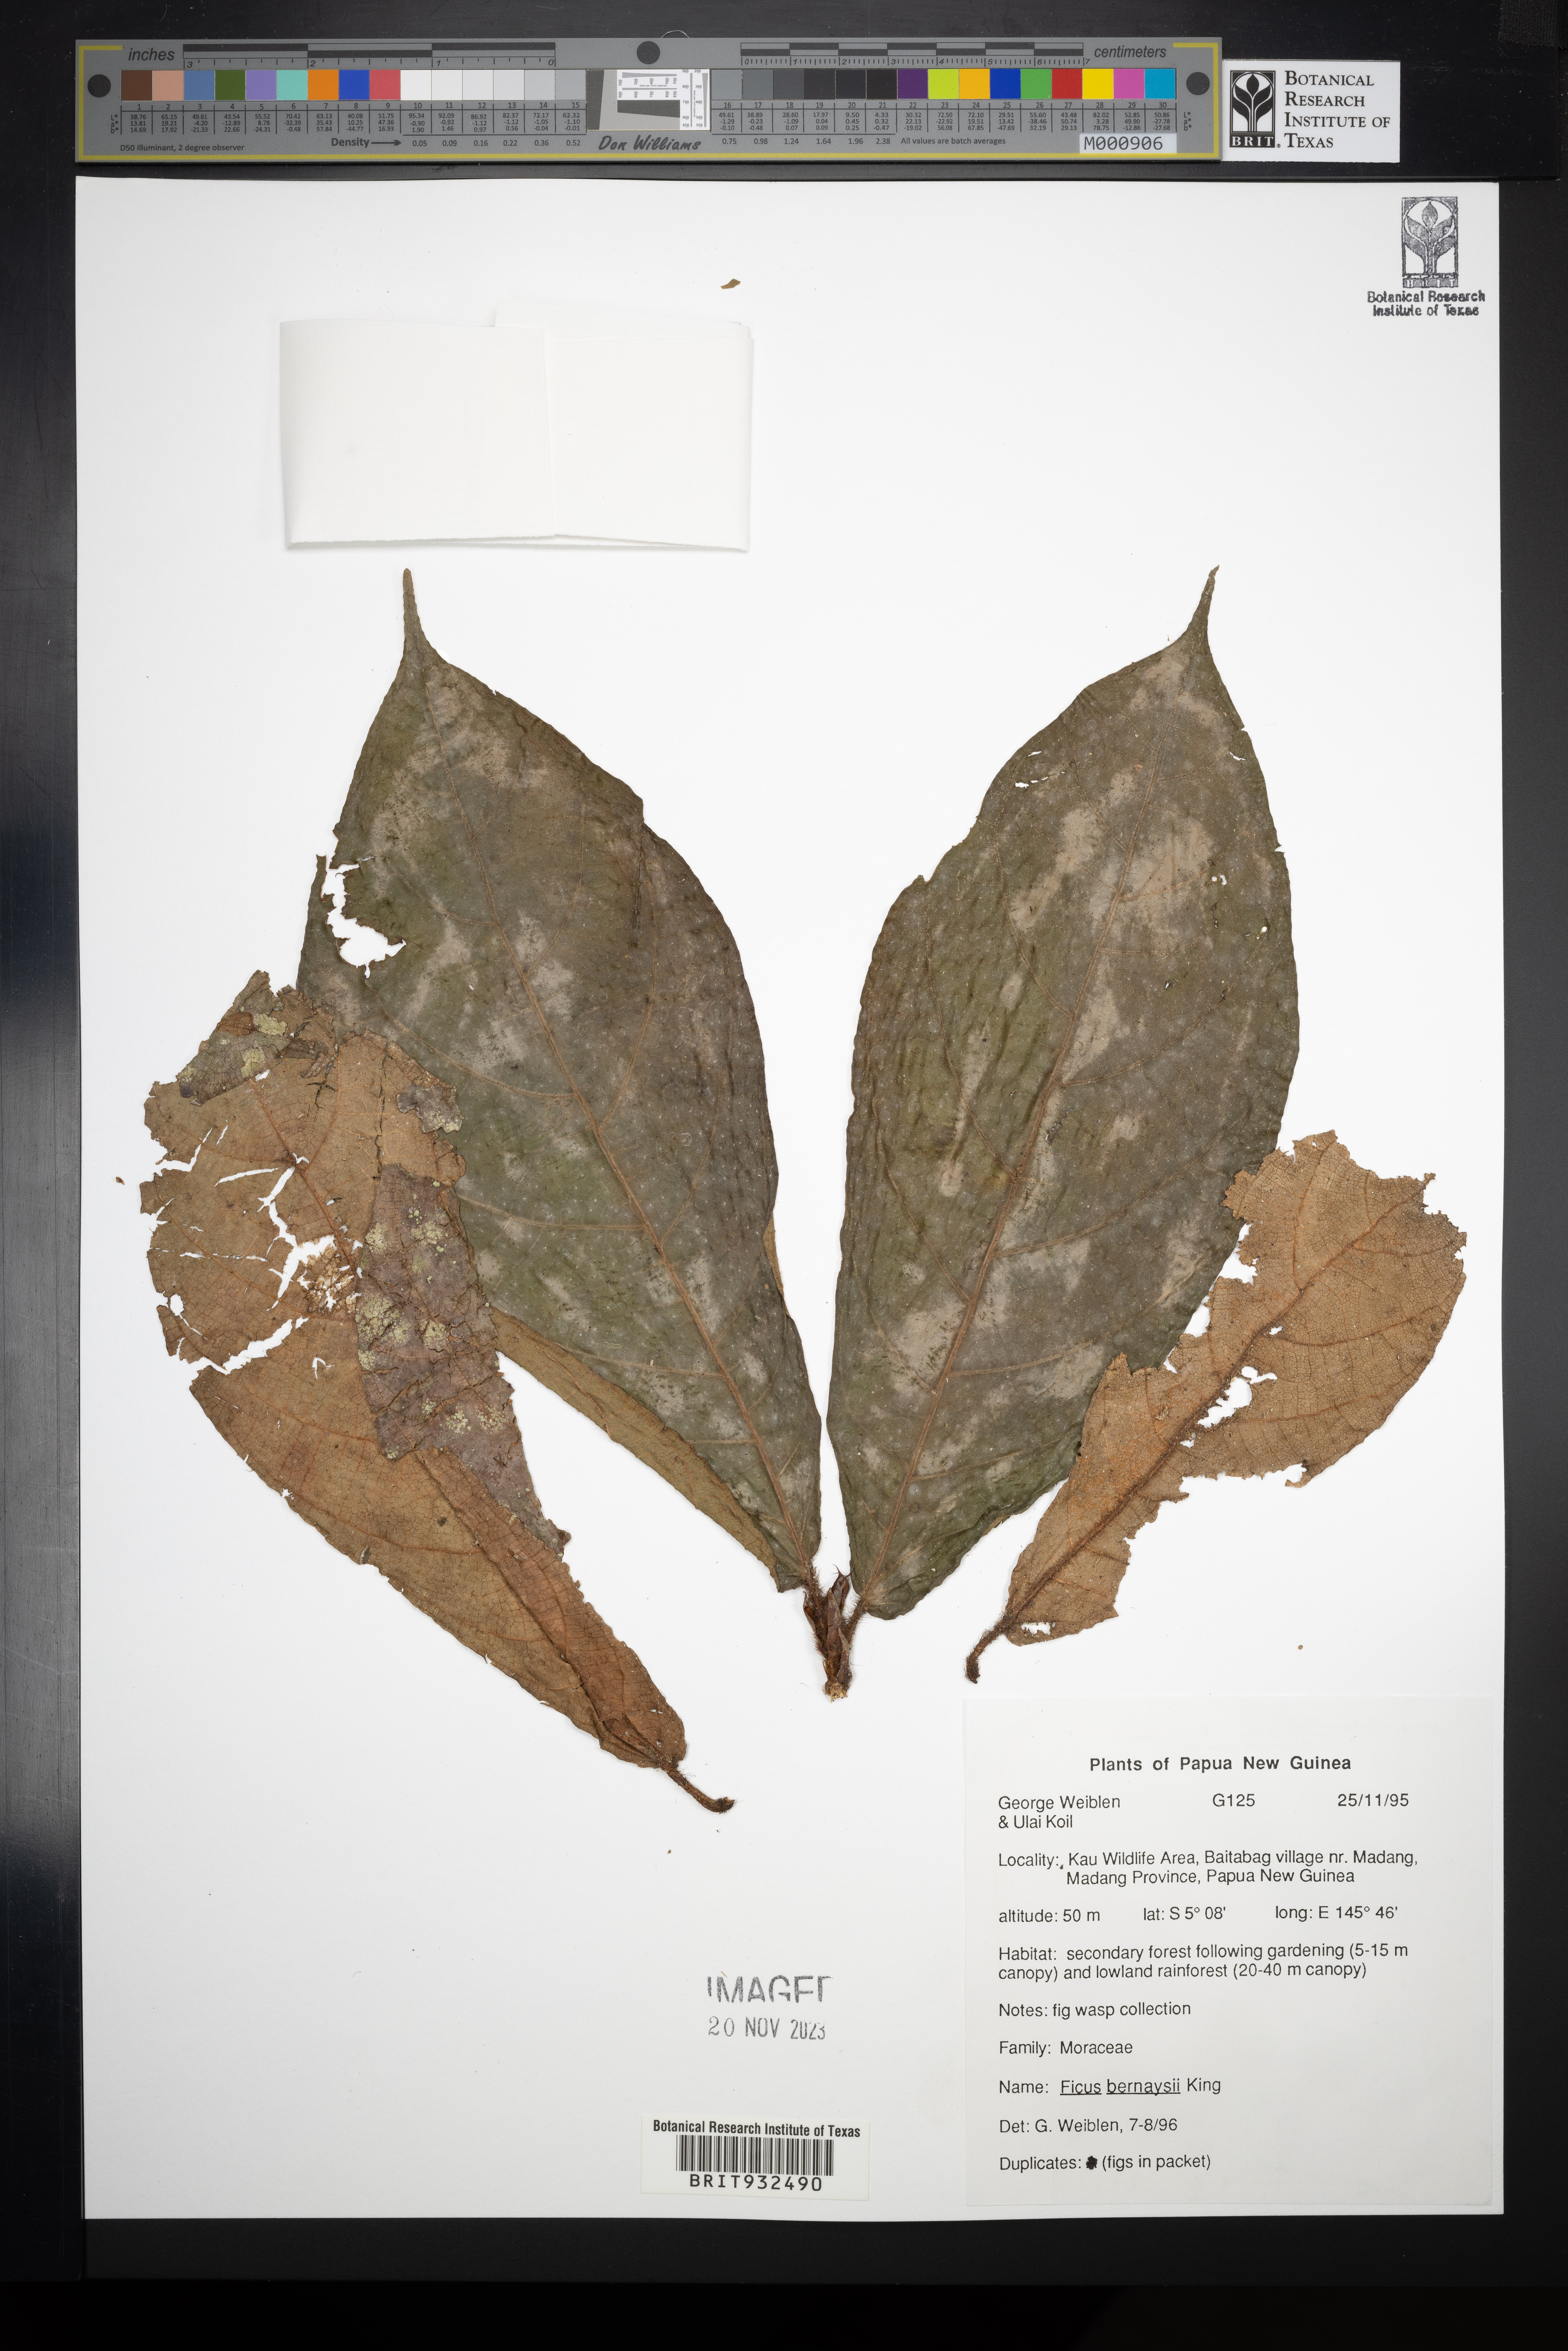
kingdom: Plantae
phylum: Tracheophyta
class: Magnoliopsida
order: Rosales
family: Moraceae
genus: Ficus
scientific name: Ficus bernaysii
